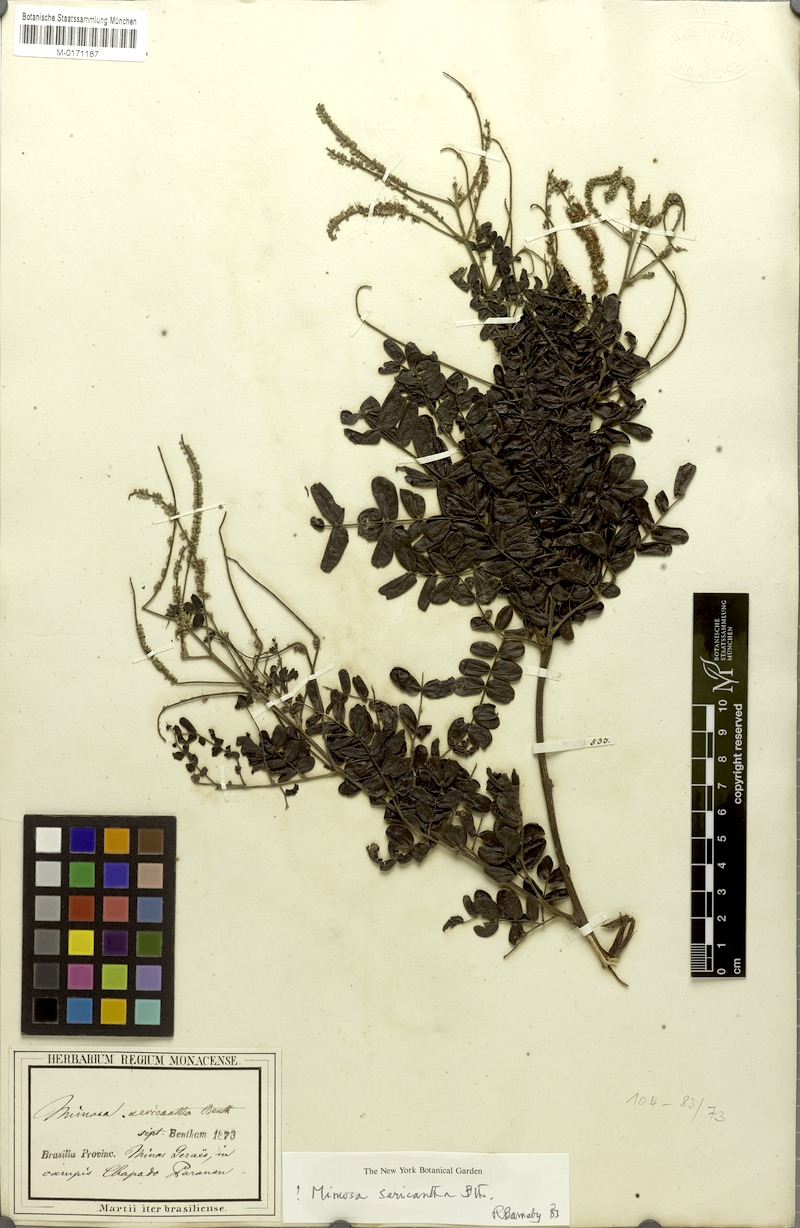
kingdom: Plantae
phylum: Tracheophyta
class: Magnoliopsida
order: Fabales
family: Fabaceae
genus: Mimosa
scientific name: Mimosa sericantha
